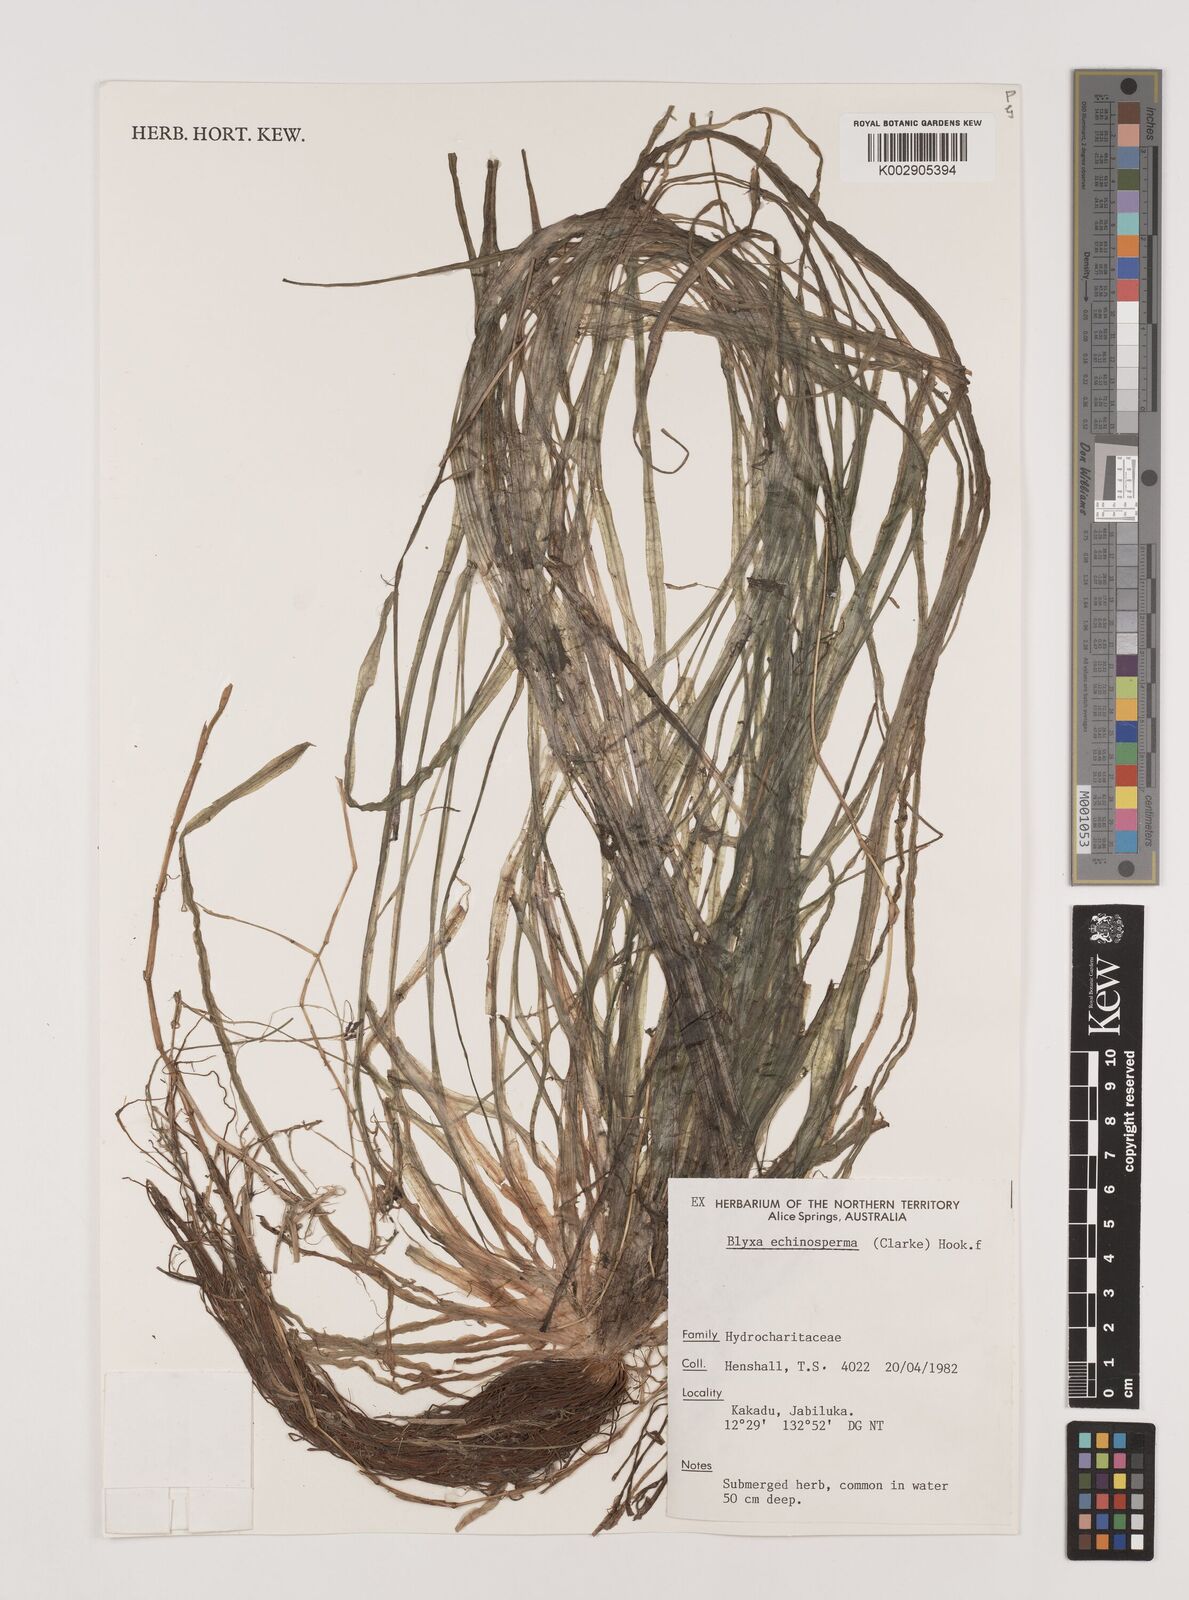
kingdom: Plantae
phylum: Tracheophyta
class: Liliopsida
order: Alismatales
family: Hydrocharitaceae
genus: Blyxa
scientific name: Blyxa echinosperma
